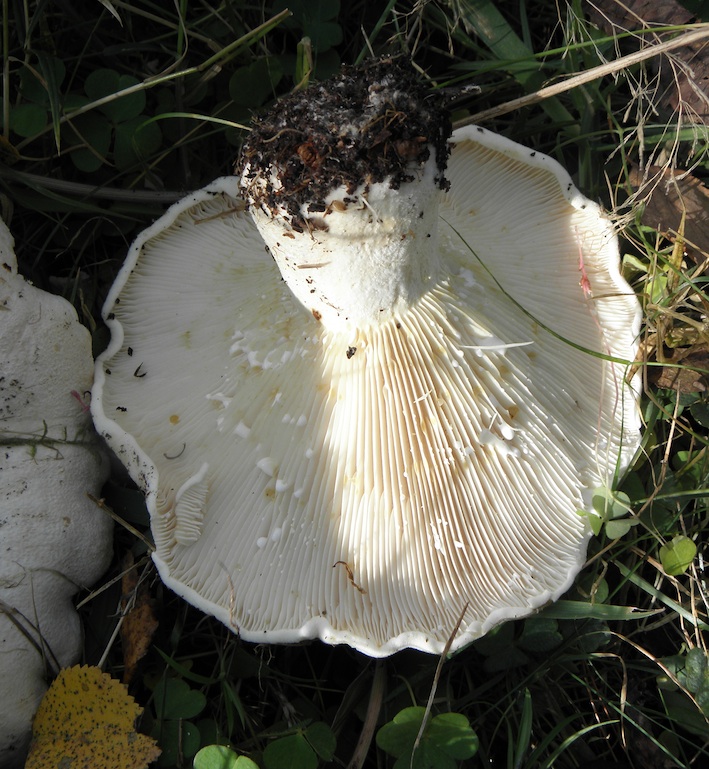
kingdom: Fungi
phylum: Basidiomycota
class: Agaricomycetes
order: Russulales
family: Russulaceae
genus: Lactifluus
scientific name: Lactifluus piperatus
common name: peber-mælkehat
